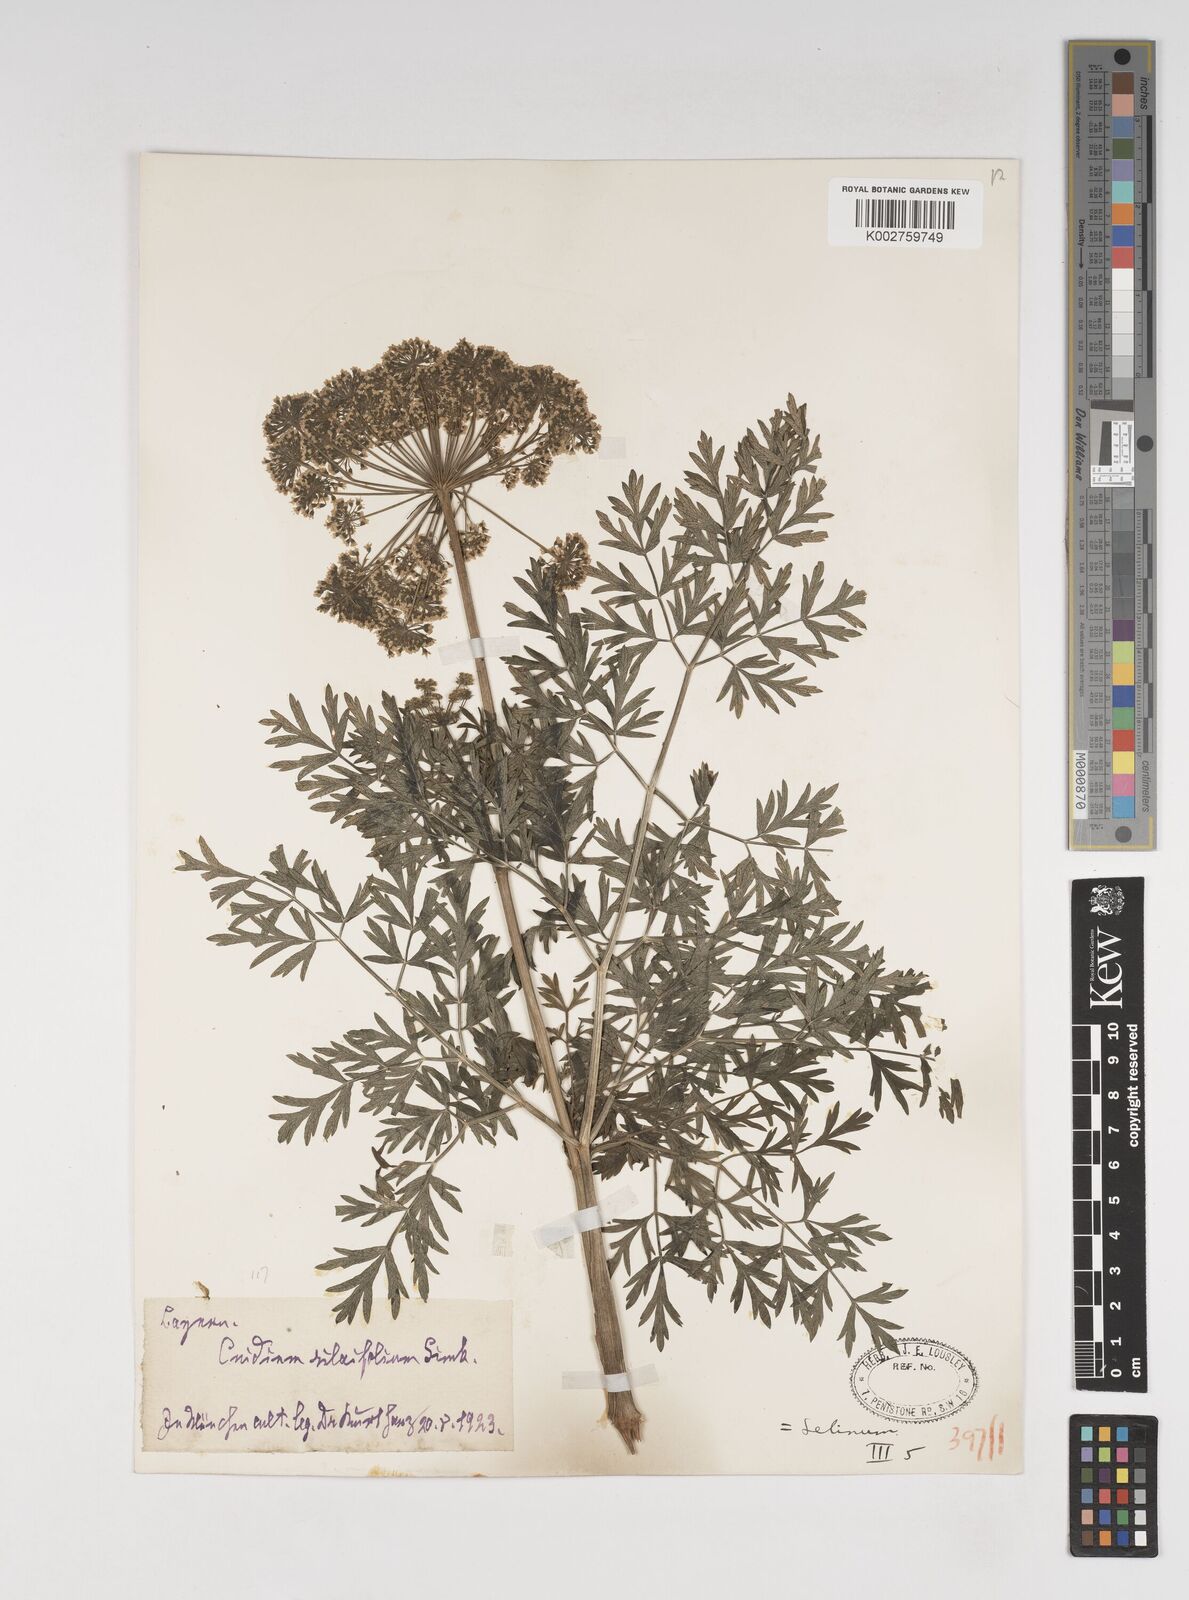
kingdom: Plantae
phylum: Tracheophyta
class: Magnoliopsida
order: Apiales
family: Apiaceae
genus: Katapsuxis
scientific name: Katapsuxis silaifolia
